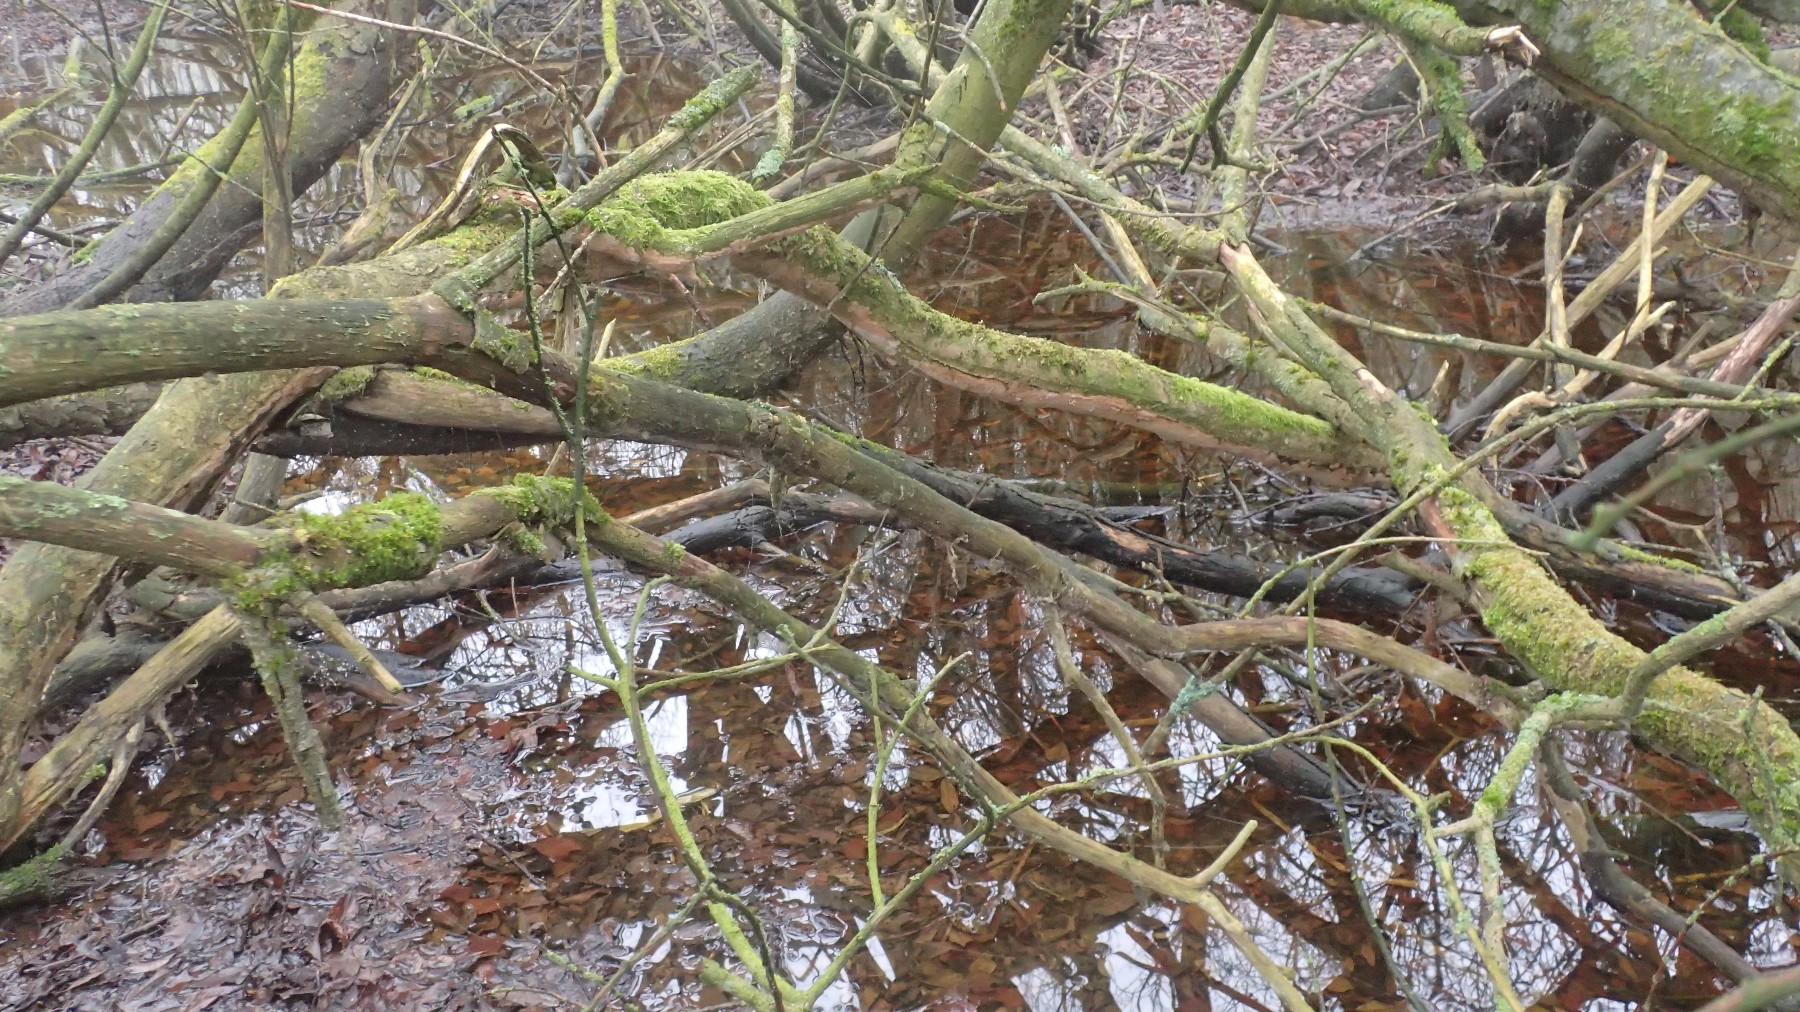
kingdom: Fungi
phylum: Basidiomycota
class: Agaricomycetes
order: Hymenochaetales
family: Hymenochaetaceae
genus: Fuscoporia
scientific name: Fuscoporia ferrea
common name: skorpe-ildporesvamp
